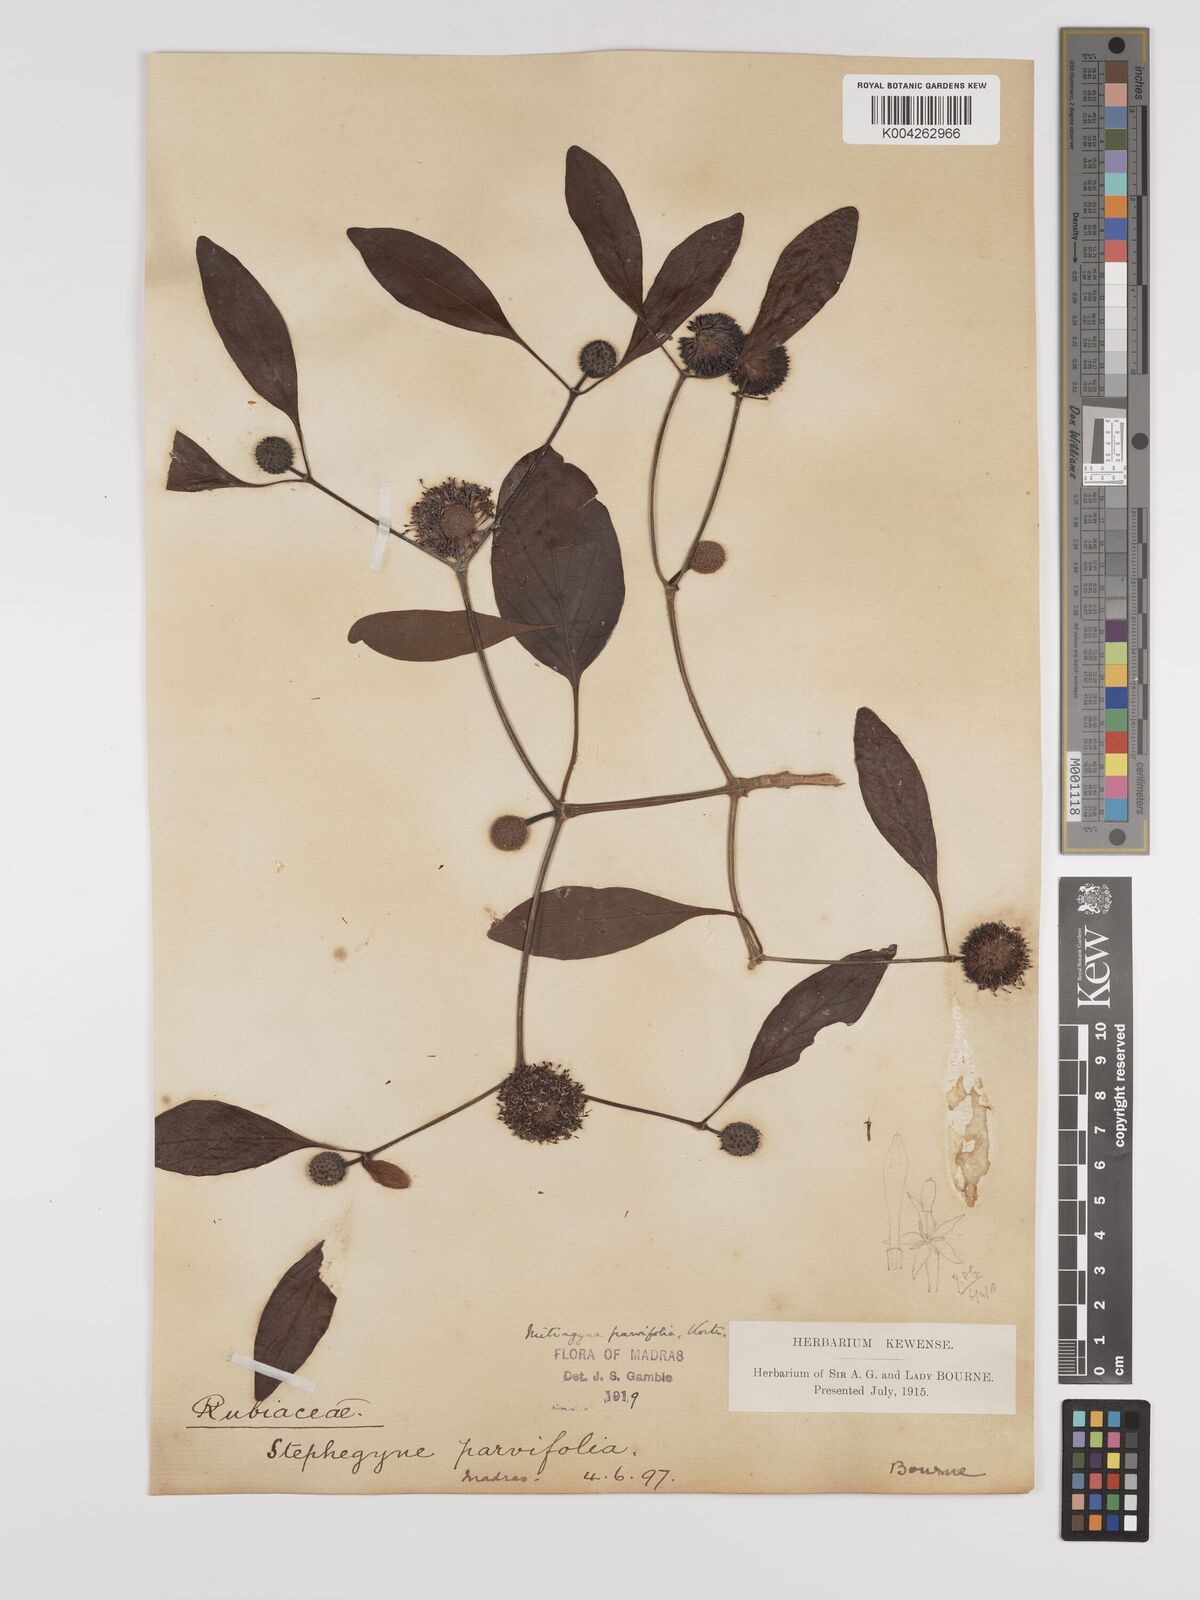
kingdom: Plantae
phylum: Tracheophyta
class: Magnoliopsida
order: Gentianales
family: Rubiaceae
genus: Mitragyna
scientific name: Mitragyna parvifolia
